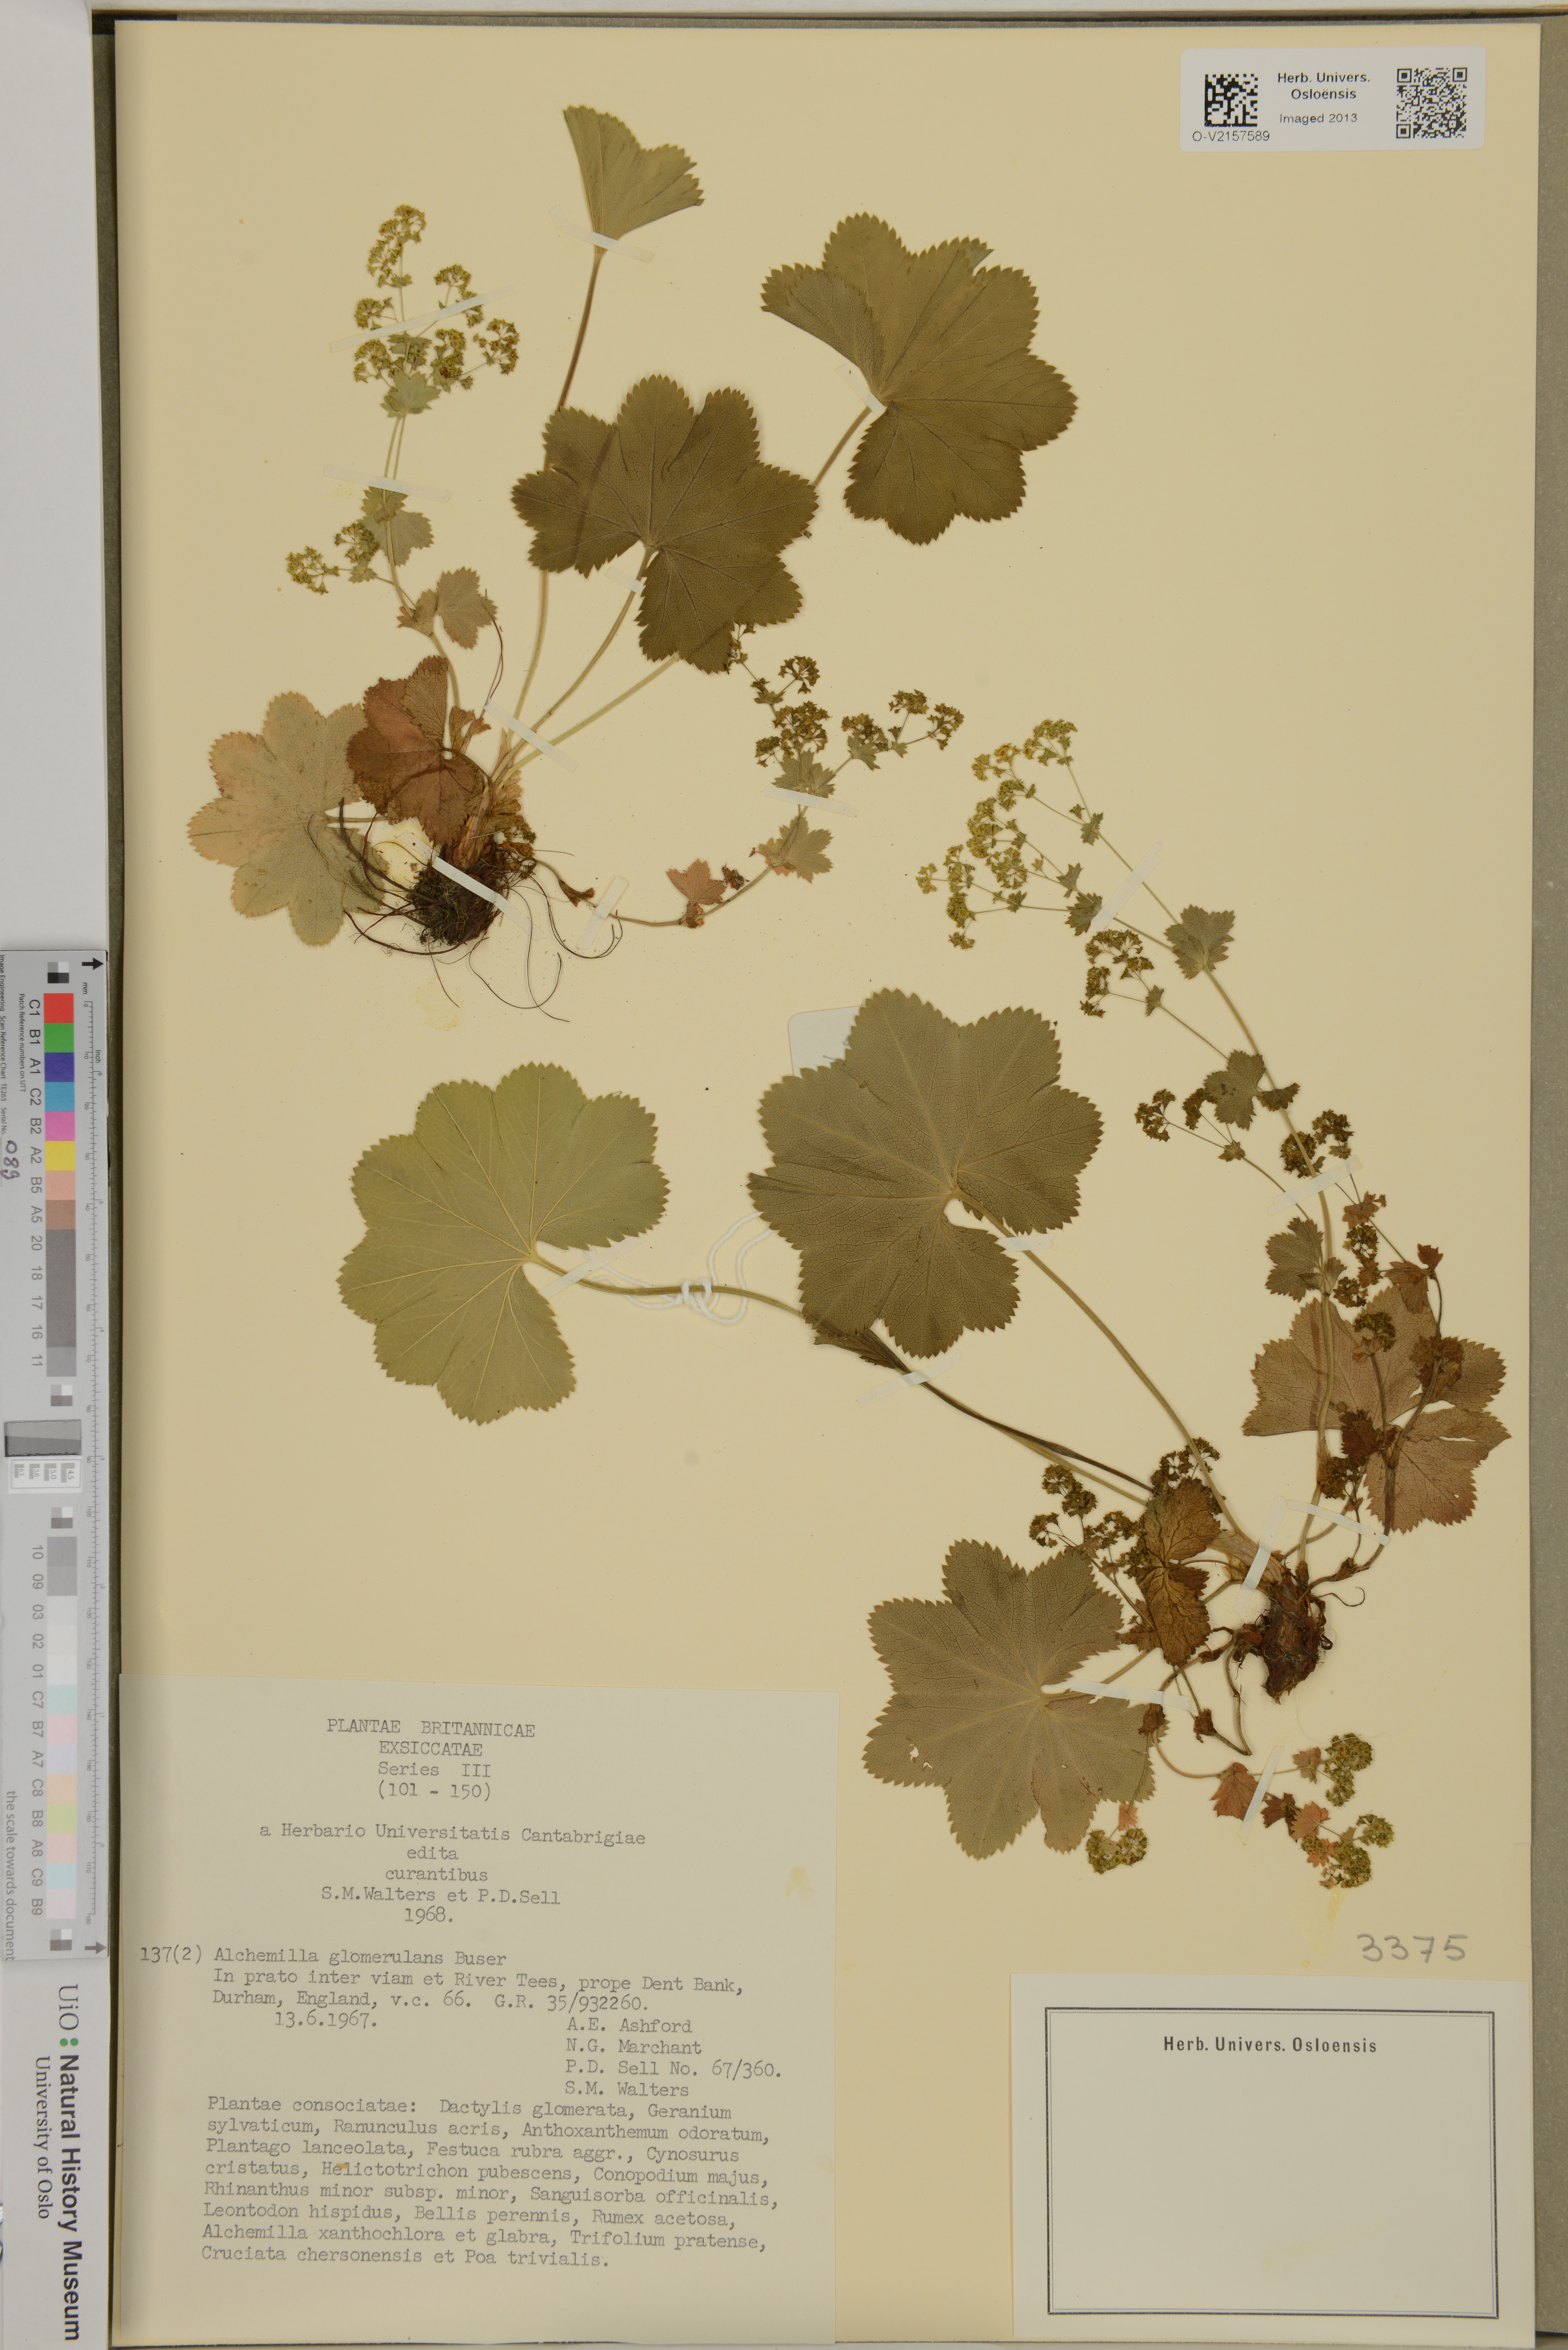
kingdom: Plantae
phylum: Tracheophyta
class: Magnoliopsida
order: Rosales
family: Rosaceae
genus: Alchemilla
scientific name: Alchemilla glomerulans
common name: Clustered lady's mantle
